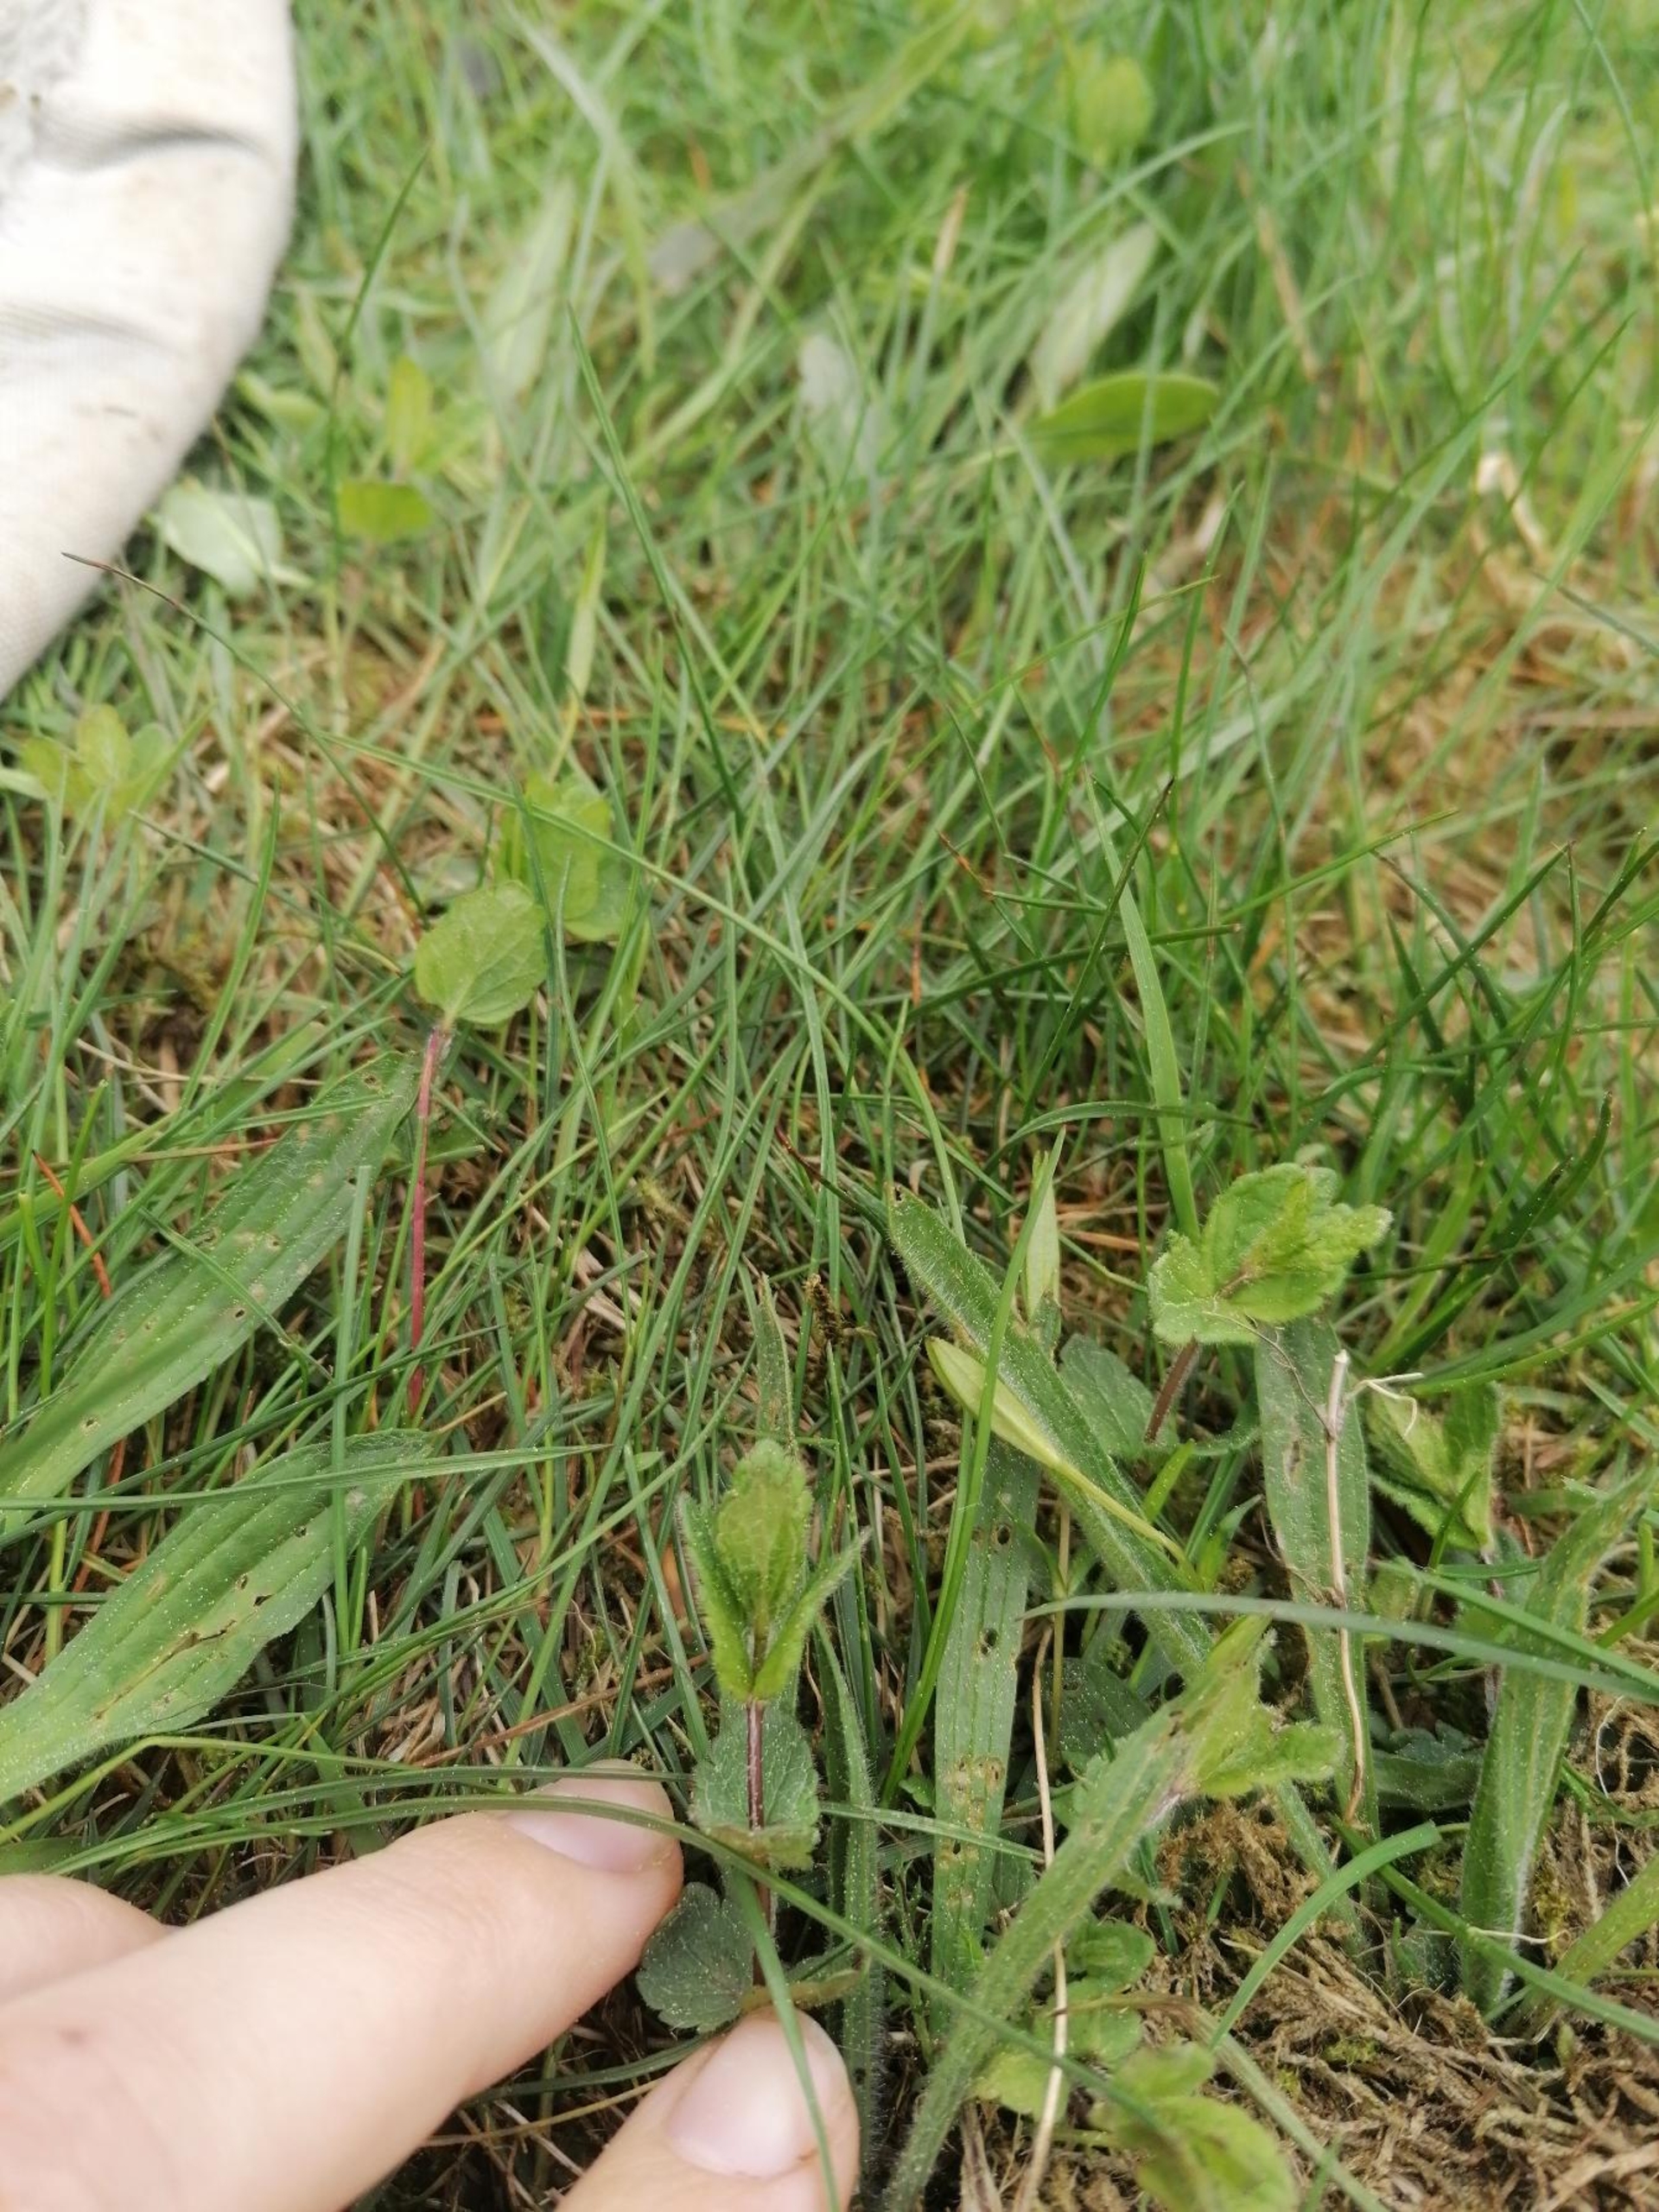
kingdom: Plantae
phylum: Tracheophyta
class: Magnoliopsida
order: Lamiales
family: Plantaginaceae
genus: Veronica
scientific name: Veronica chamaedrys
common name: Tveskægget ærenpris
